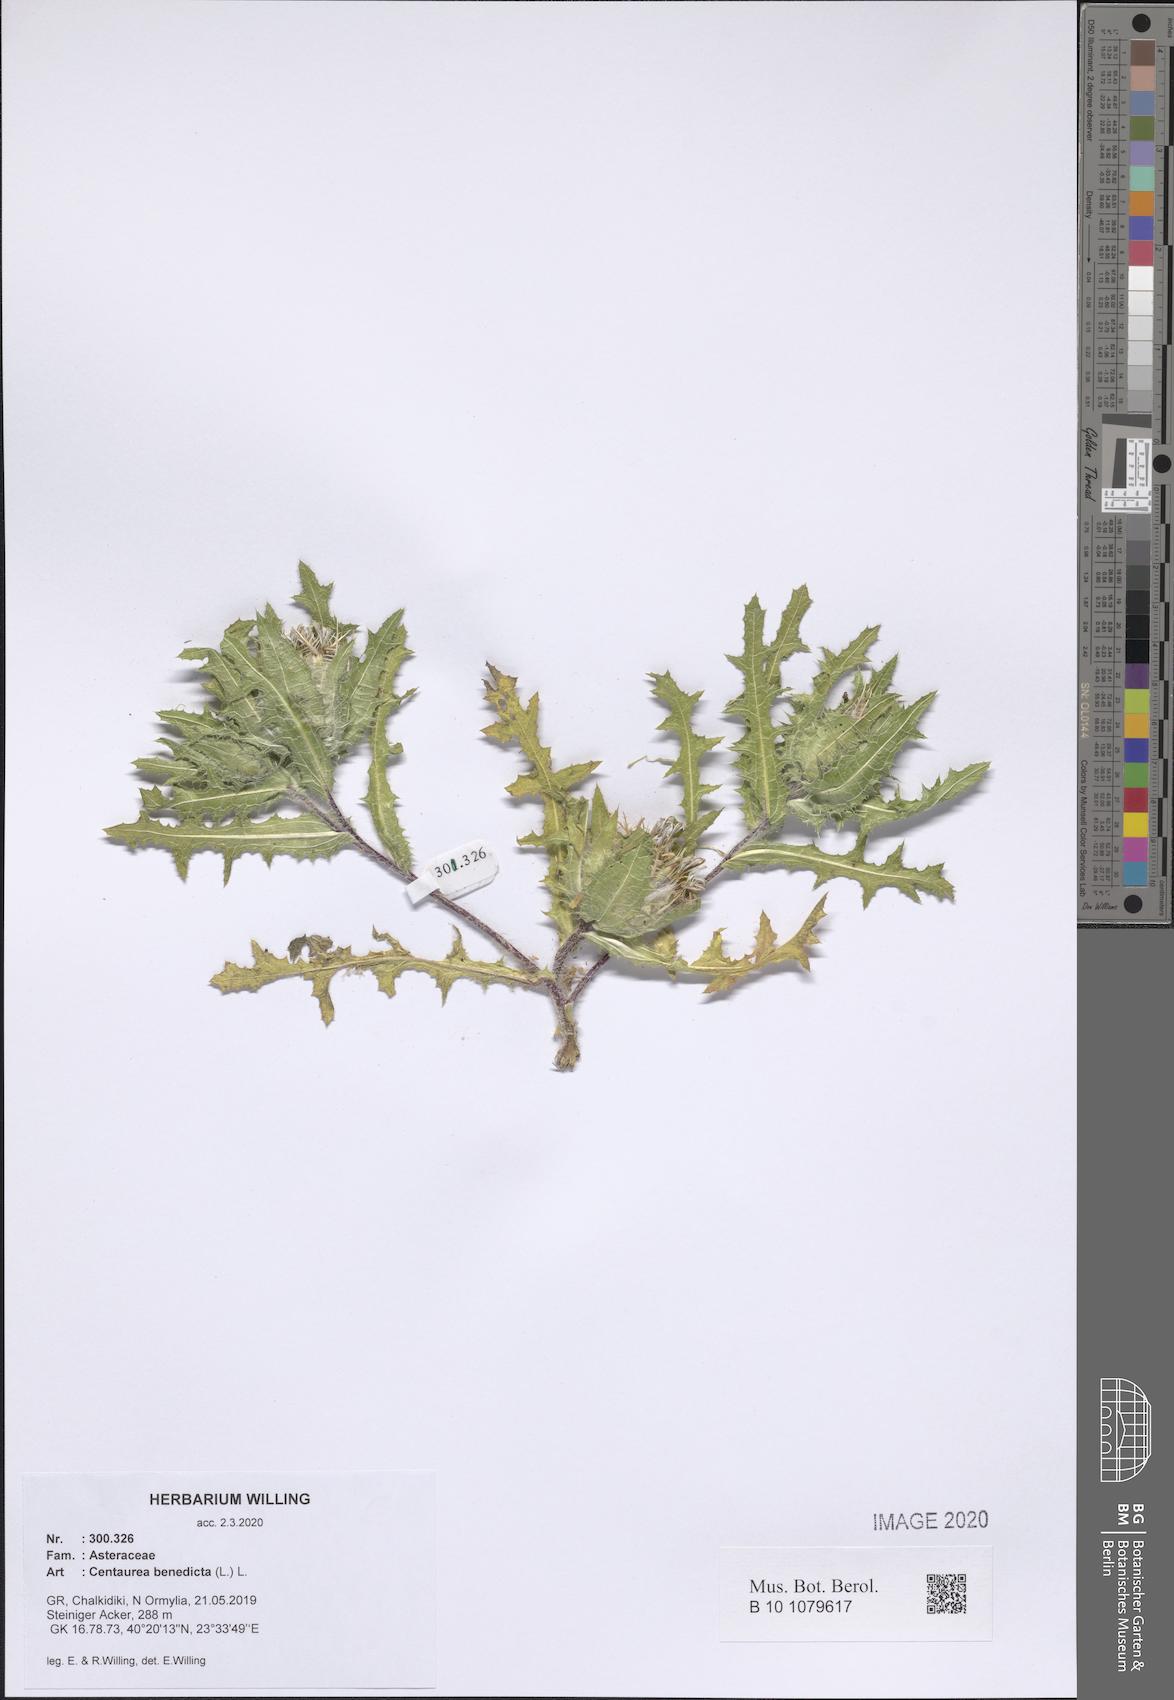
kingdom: Plantae
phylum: Tracheophyta
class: Magnoliopsida
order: Asterales
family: Asteraceae
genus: Centaurea
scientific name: Centaurea benedicta
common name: Blessed thistle
